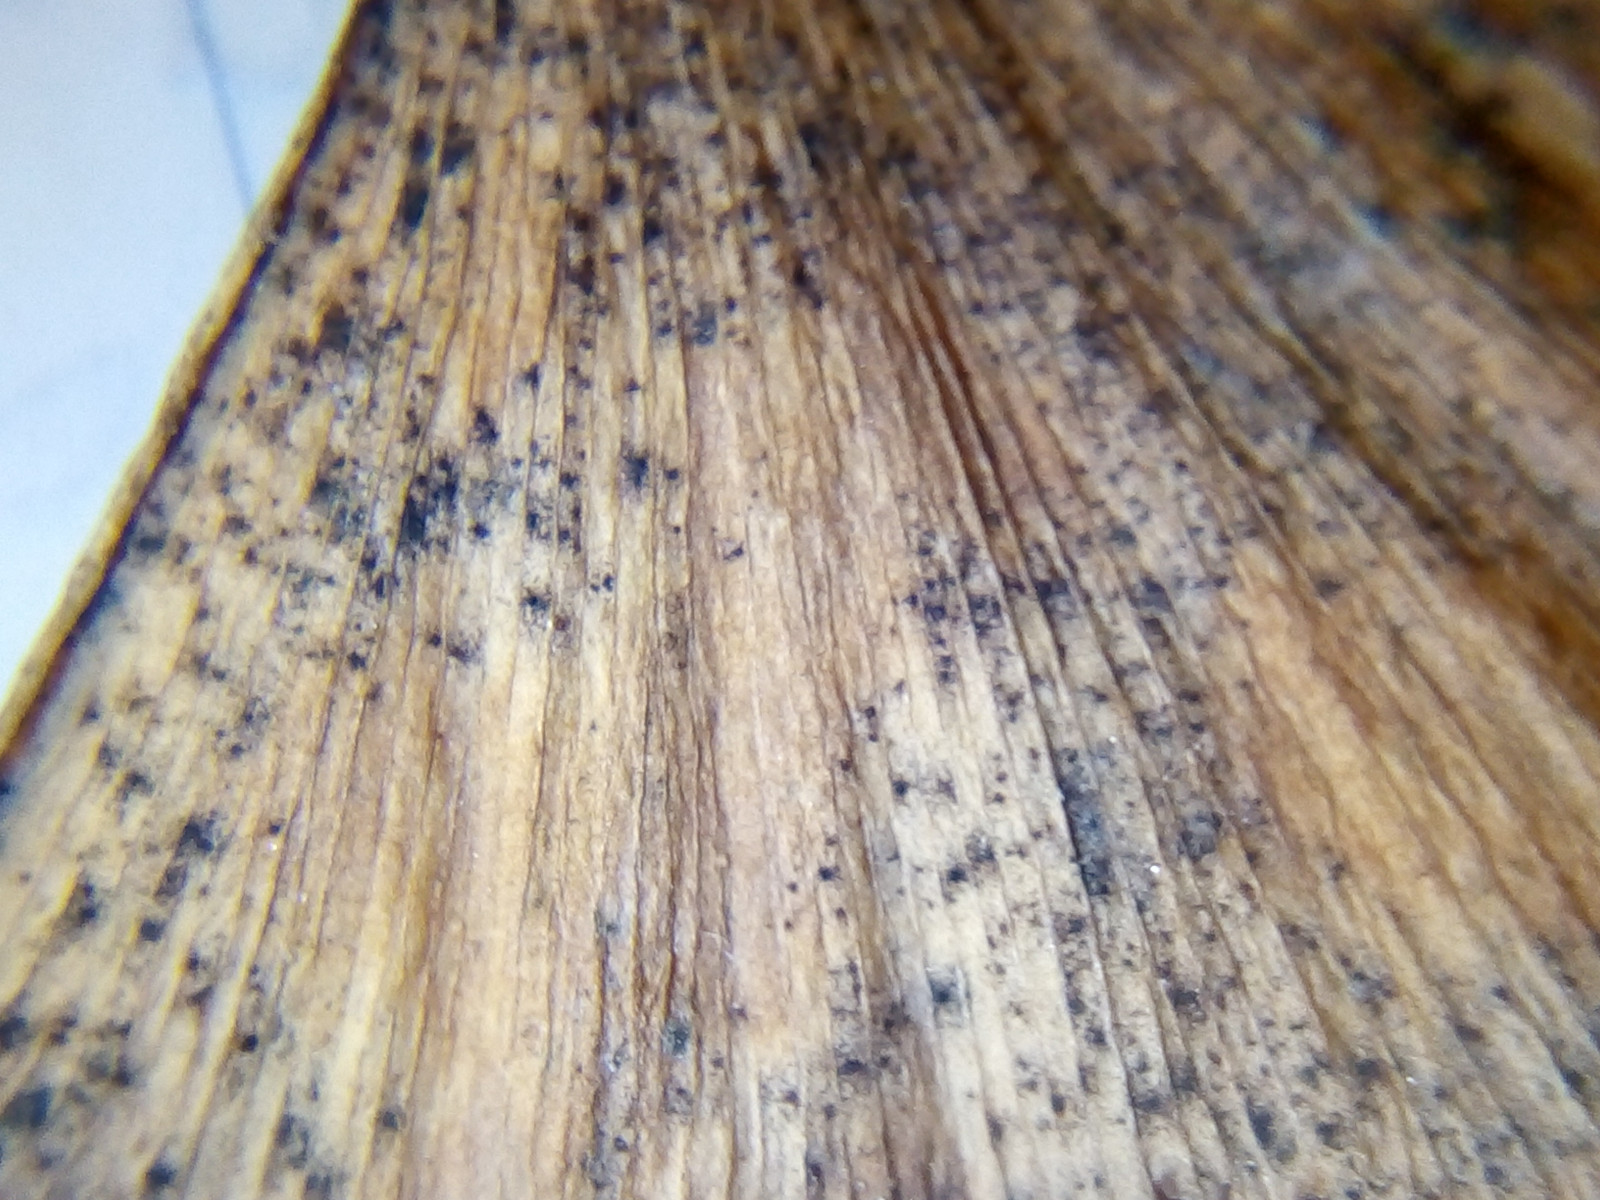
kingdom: Fungi
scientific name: Fungi
